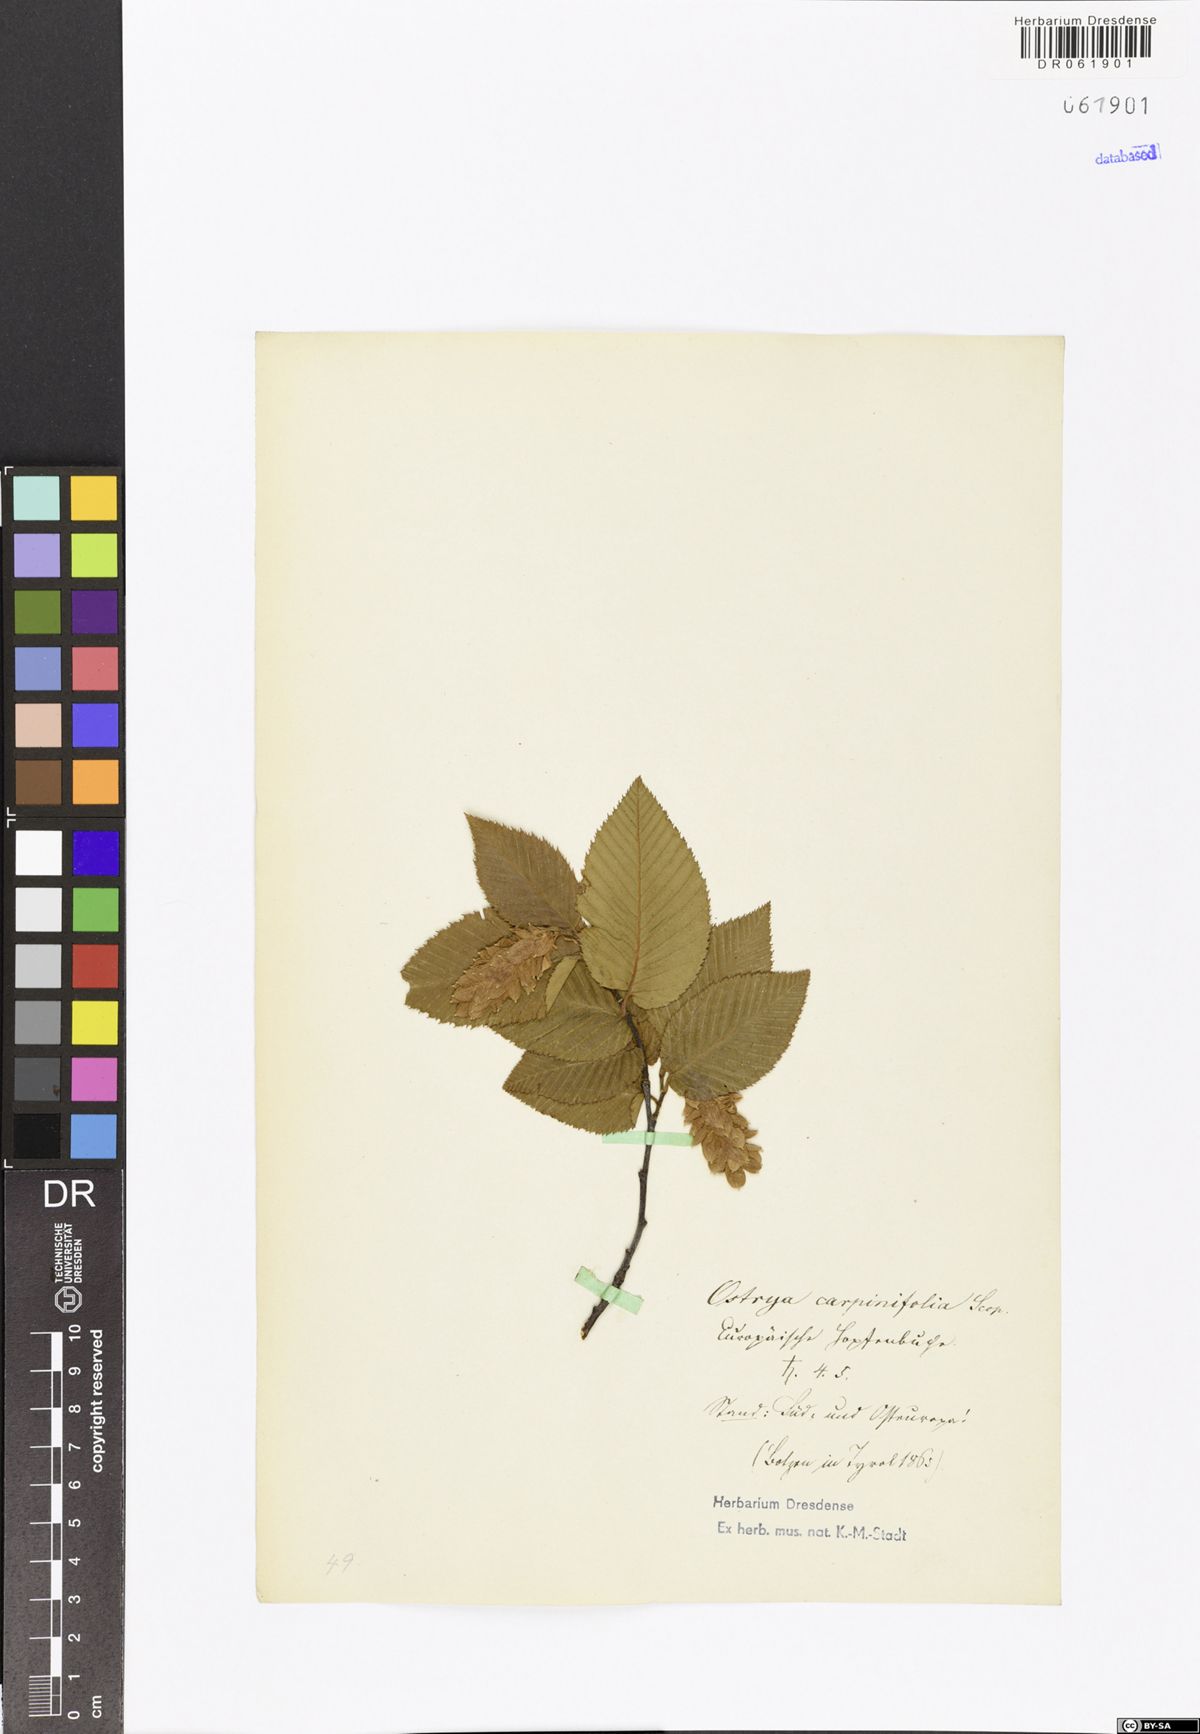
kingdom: Plantae
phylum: Tracheophyta
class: Magnoliopsida
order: Fagales
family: Betulaceae
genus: Ostrya
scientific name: Ostrya carpinifolia
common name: European hop-hornbeam
